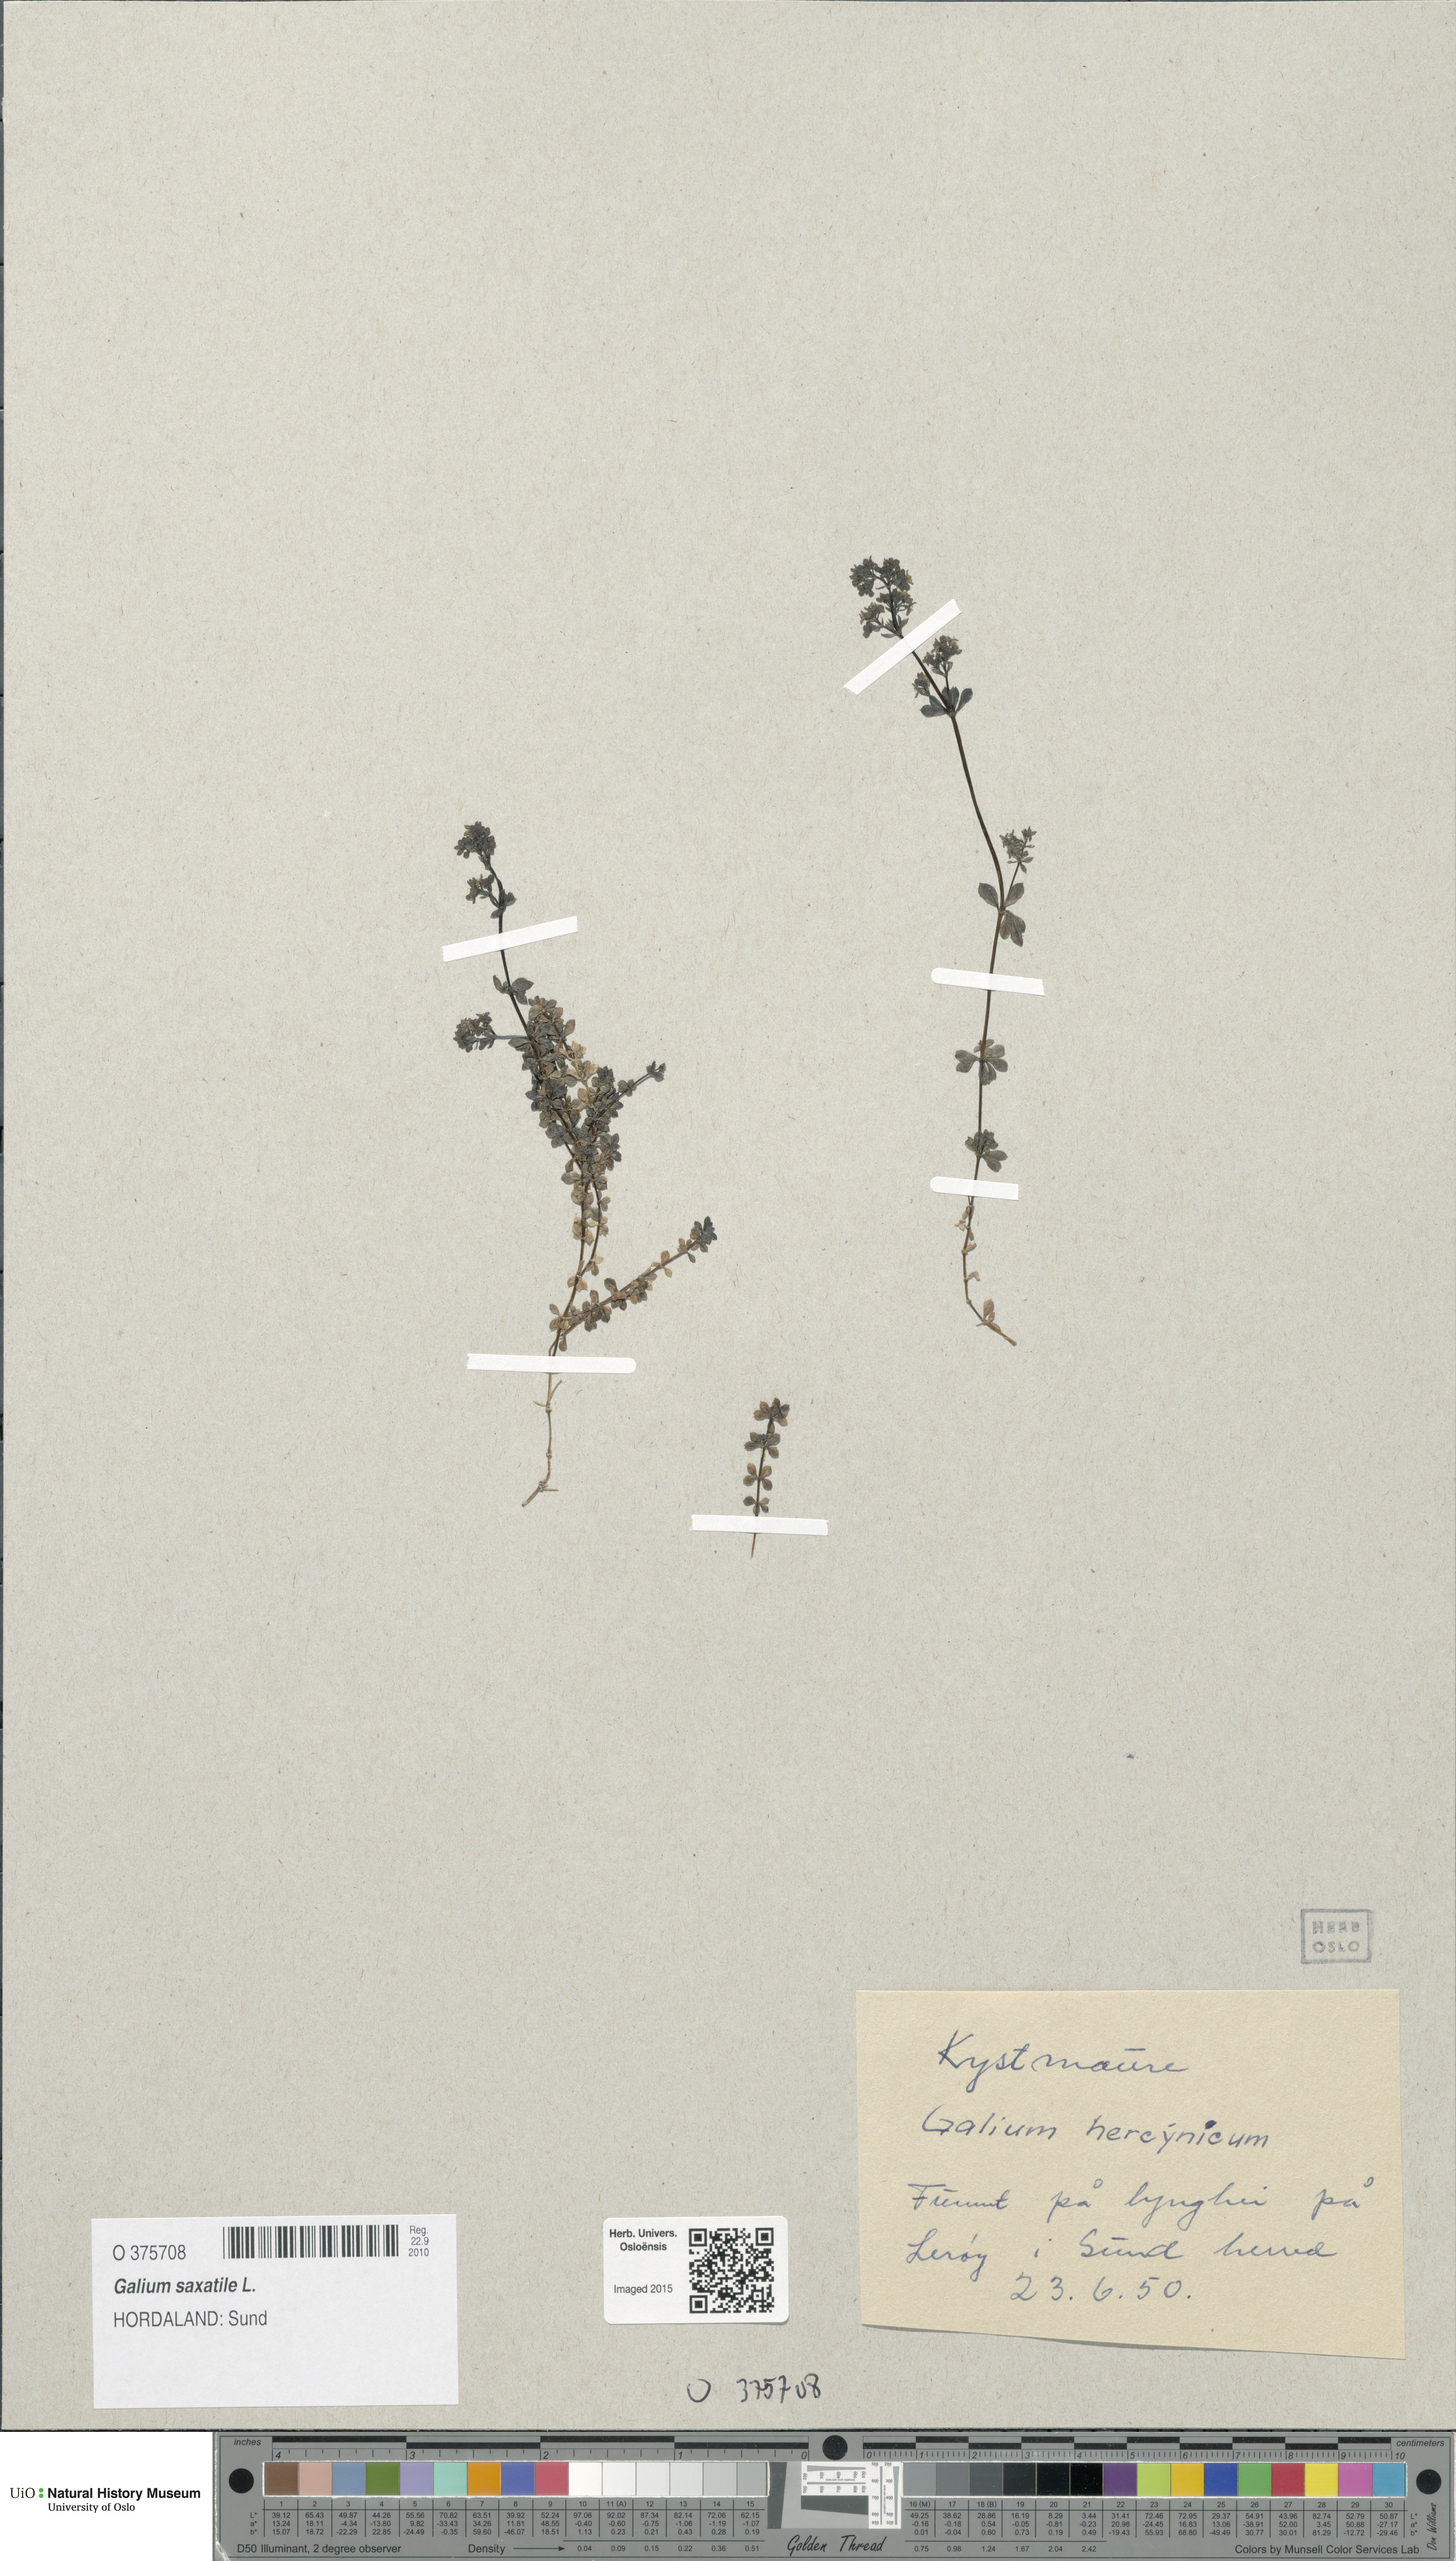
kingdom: Plantae
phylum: Tracheophyta
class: Magnoliopsida
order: Gentianales
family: Rubiaceae
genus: Galium
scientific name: Galium saxatile
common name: Heath bedstraw
